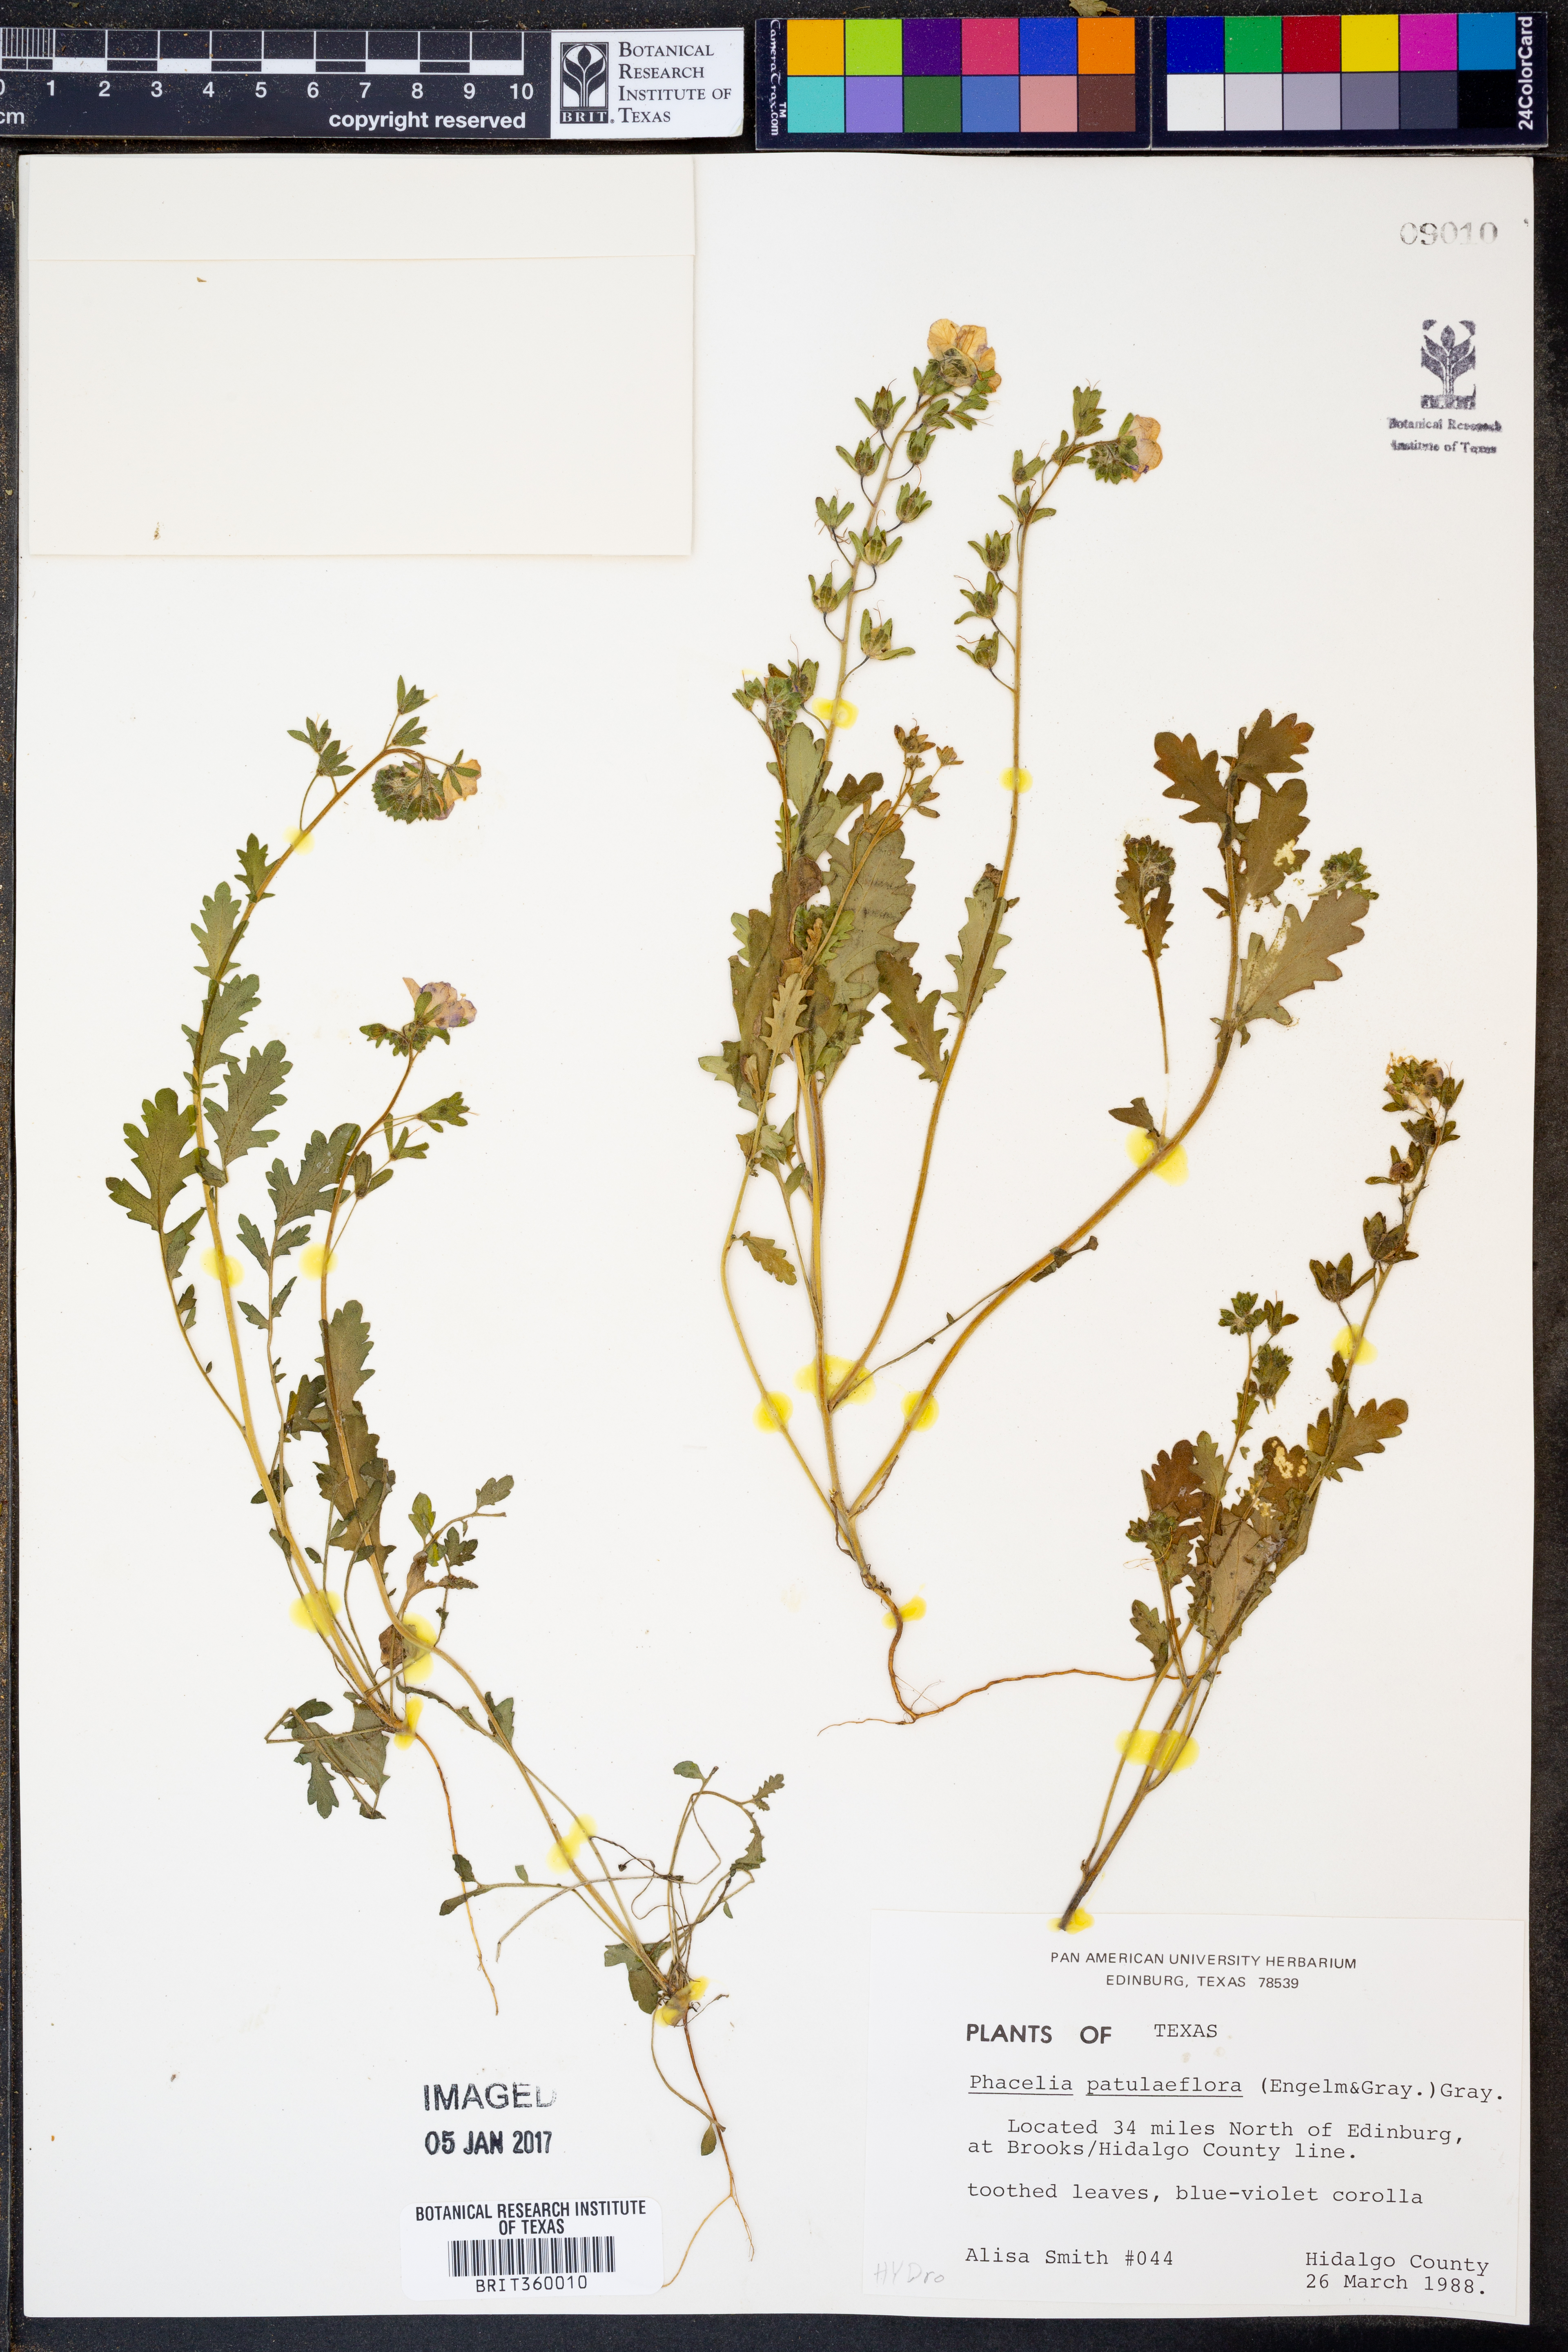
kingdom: Plantae
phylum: Tracheophyta
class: Magnoliopsida
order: Boraginales
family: Hydrophyllaceae
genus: Phacelia
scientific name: Phacelia patuliflora
